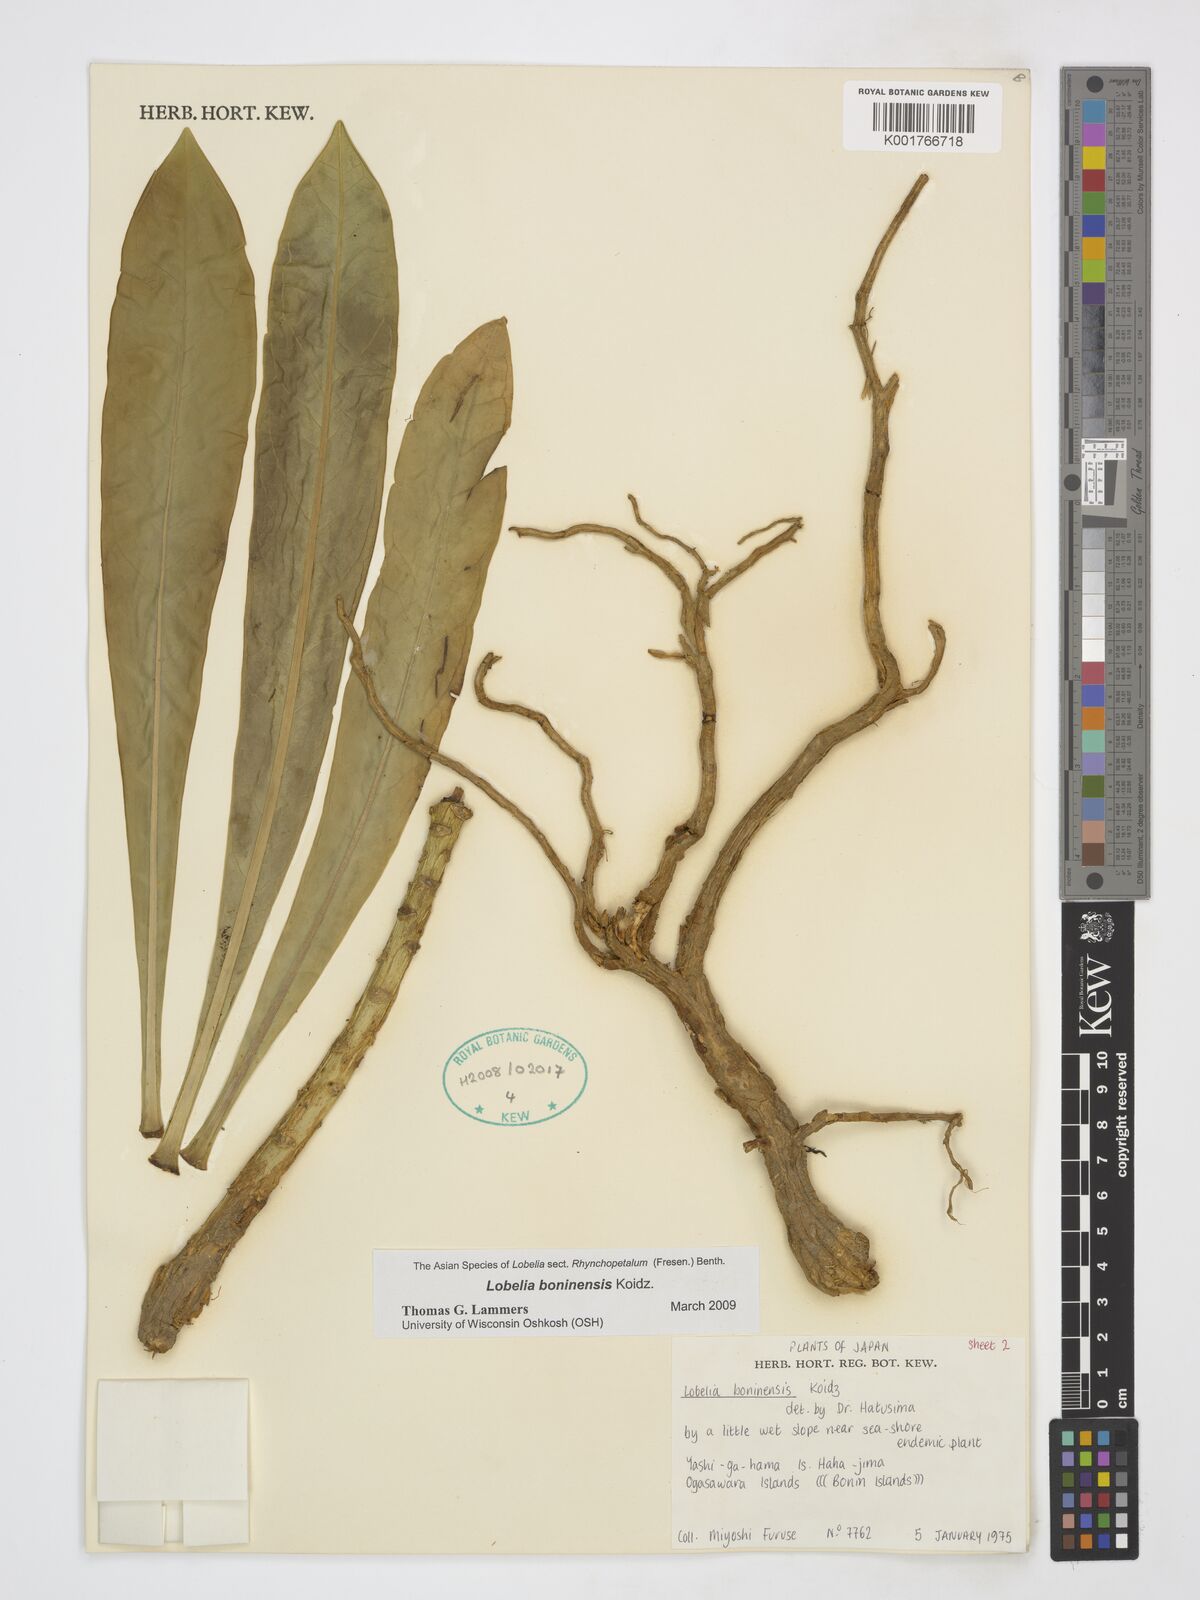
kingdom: Plantae
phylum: Tracheophyta
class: Magnoliopsida
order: Asterales
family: Campanulaceae
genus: Lobelia
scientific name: Lobelia boninensis
